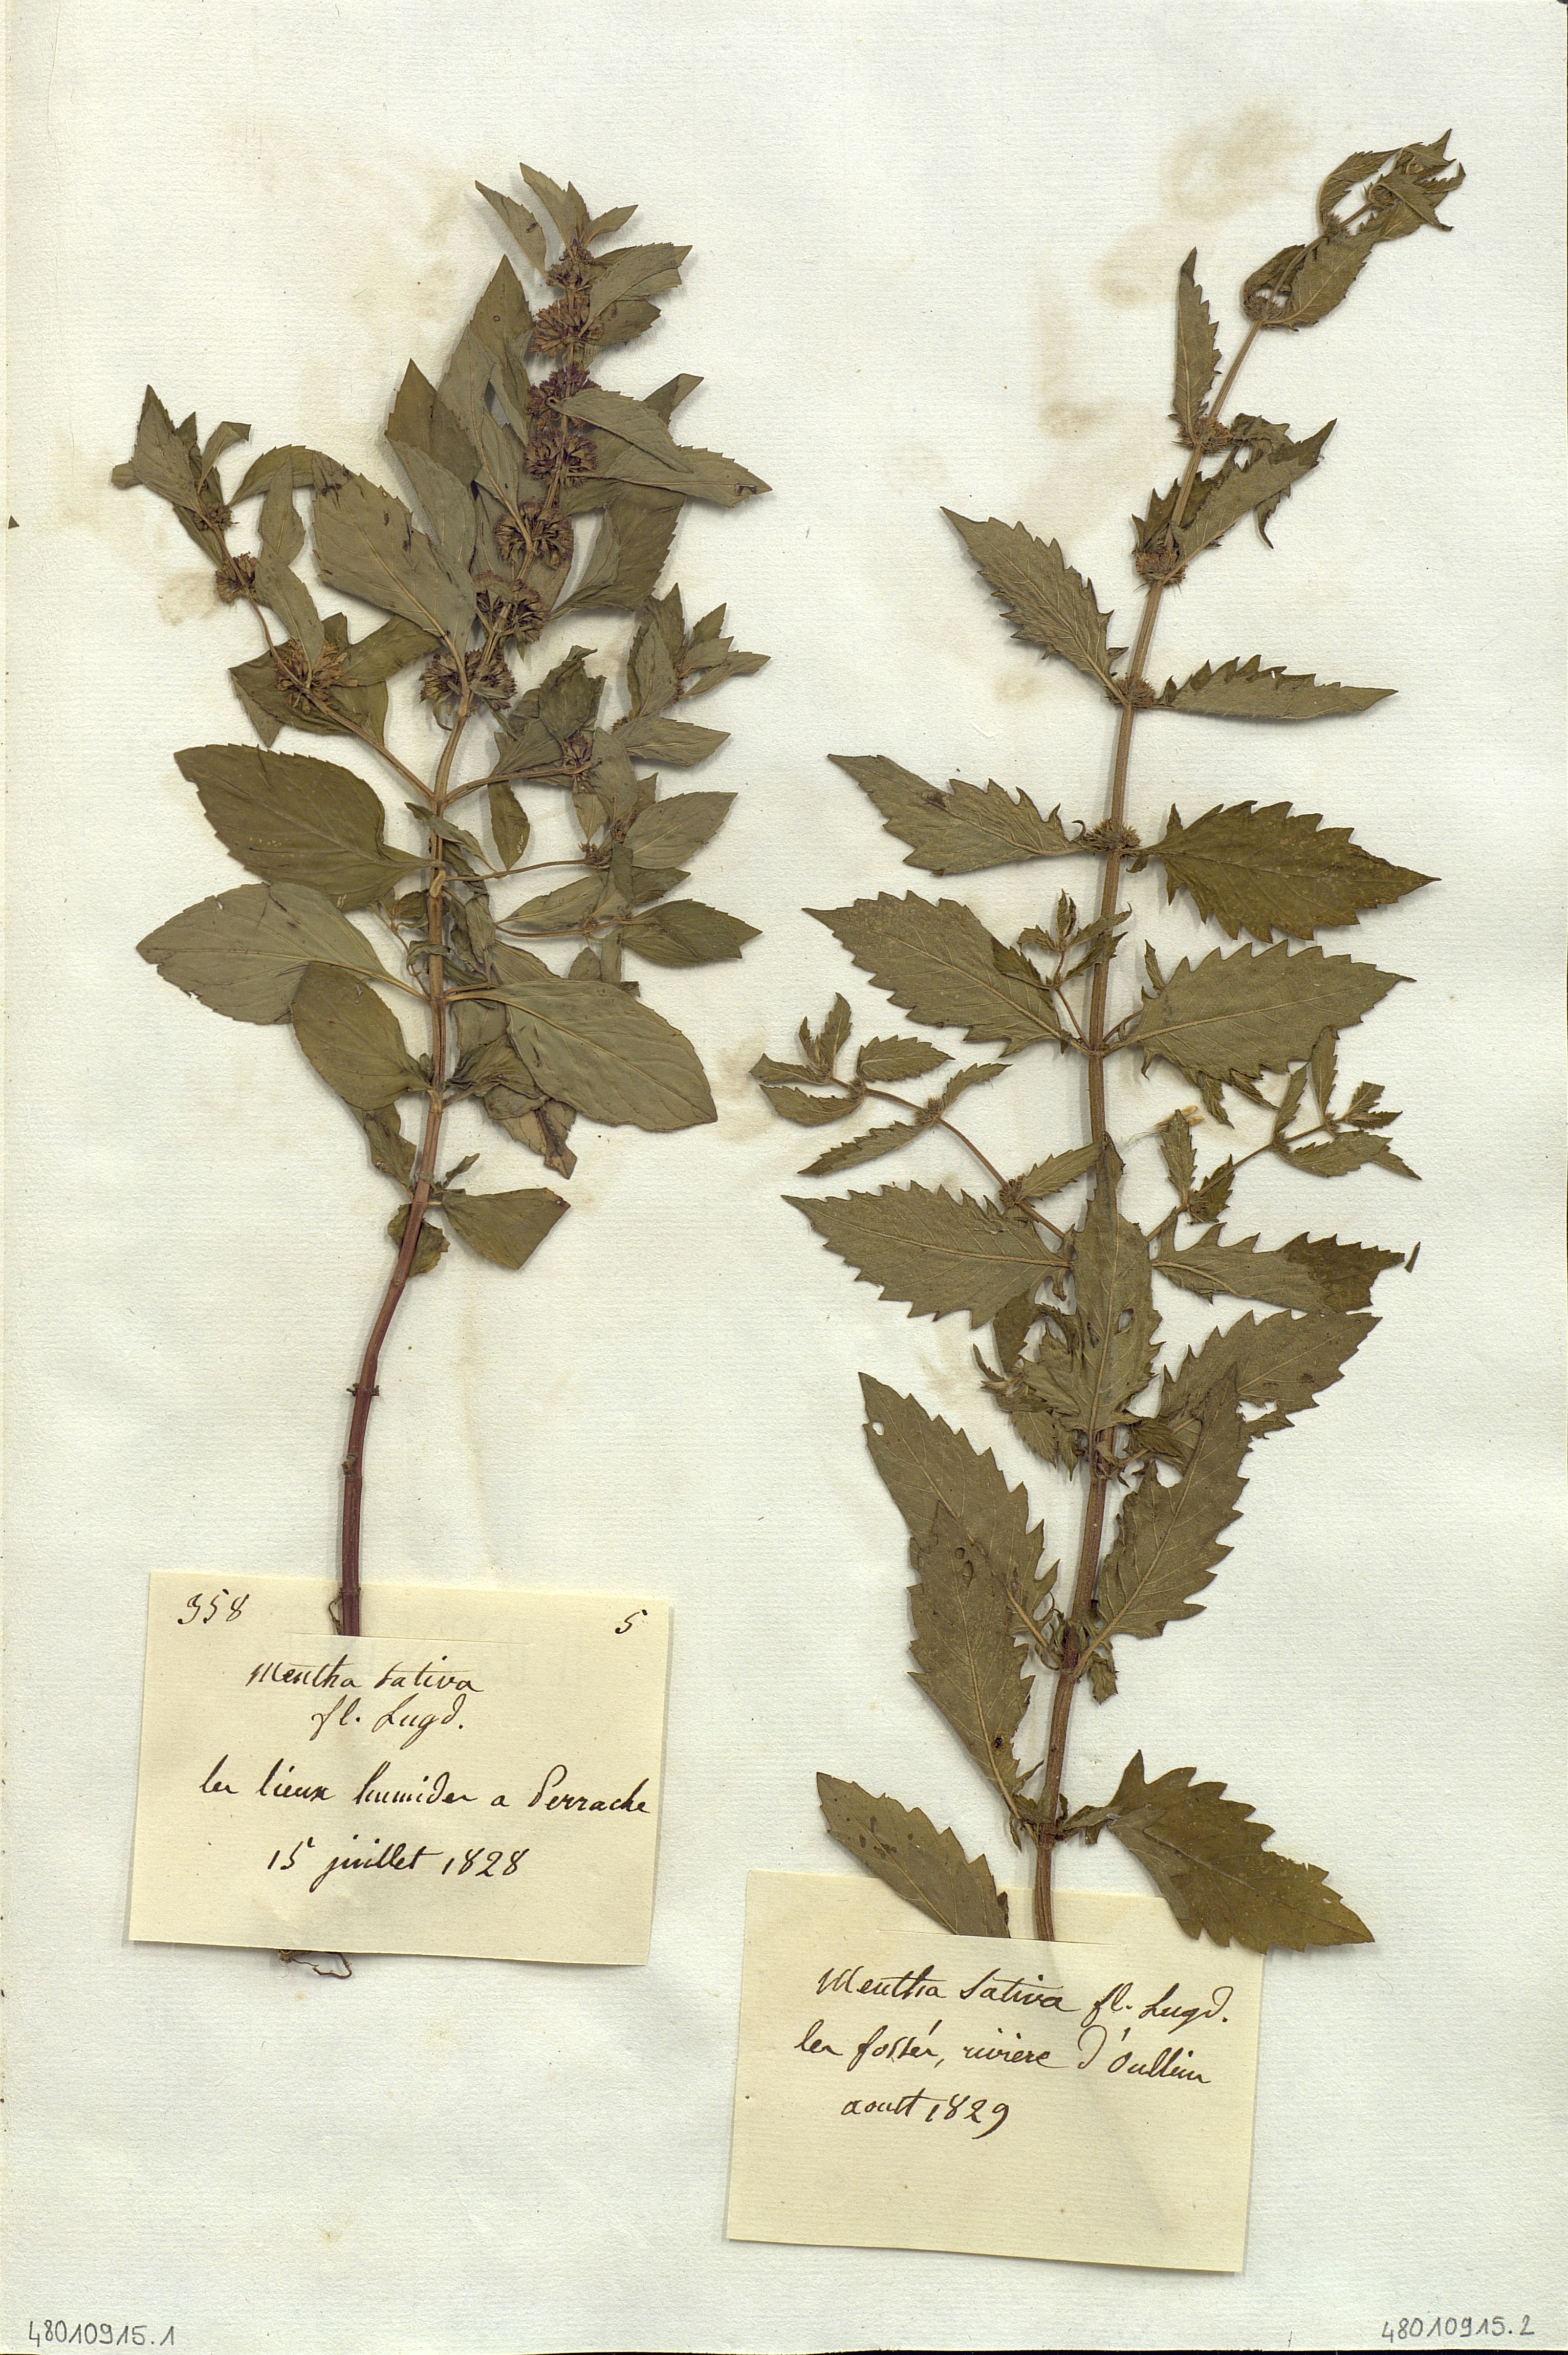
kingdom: Plantae
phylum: Tracheophyta
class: Magnoliopsida
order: Lamiales
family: Lamiaceae
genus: Mentha
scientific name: Mentha
